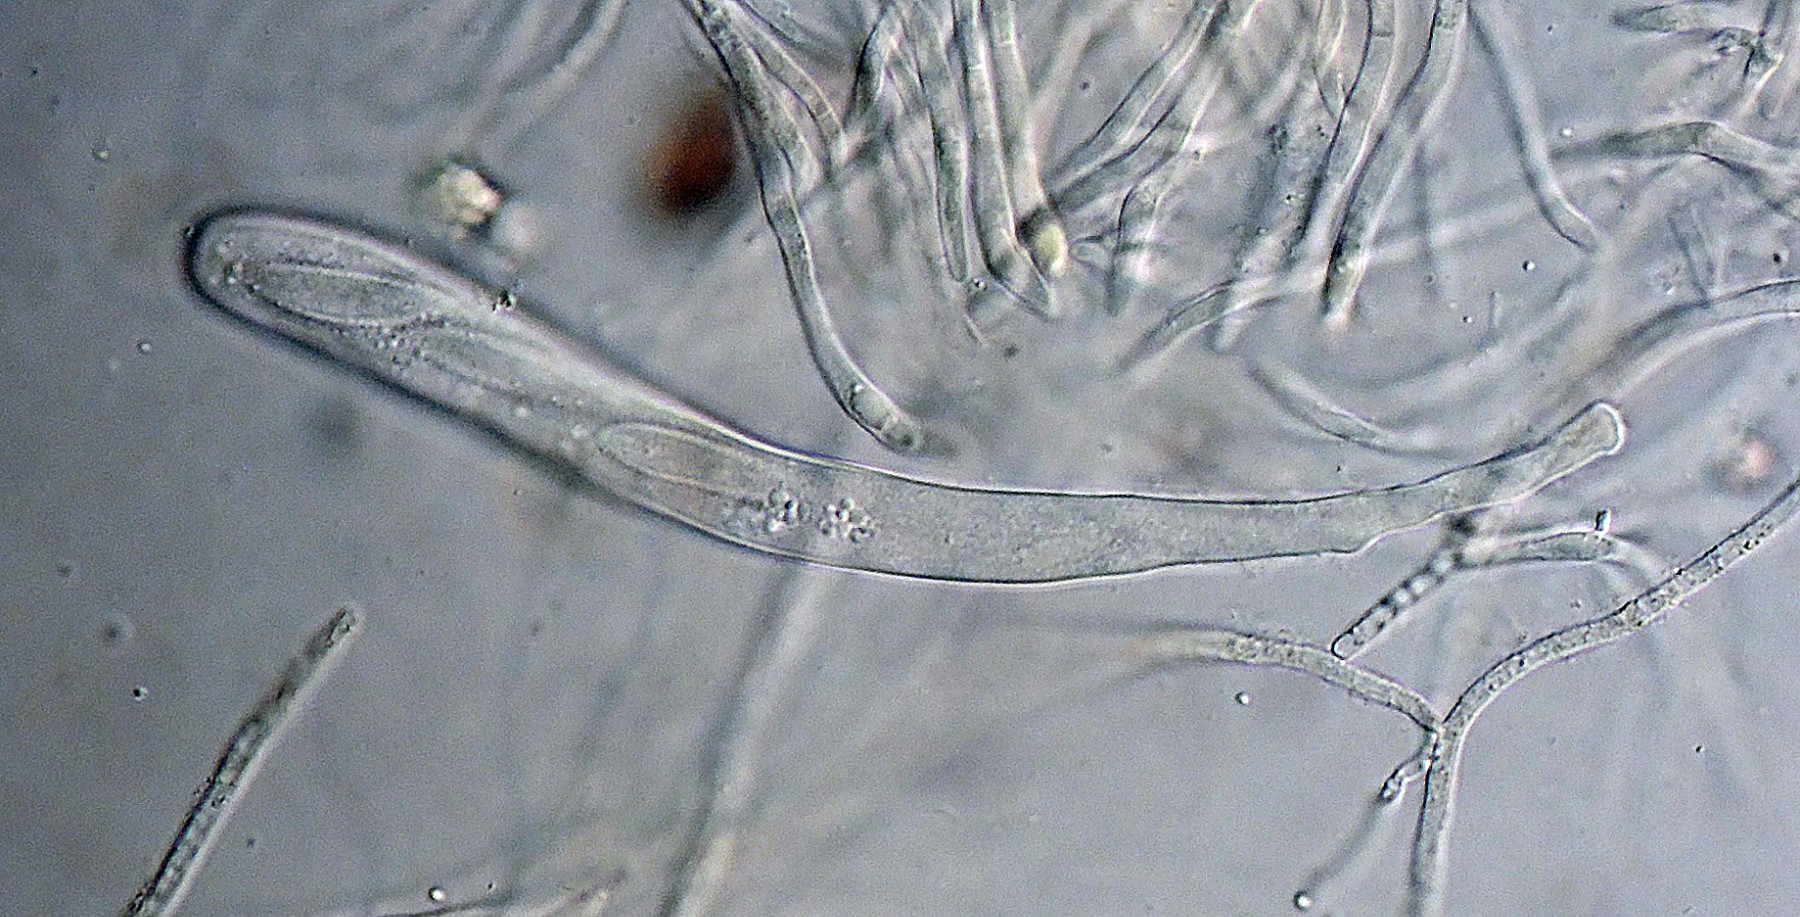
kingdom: Fungi
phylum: Ascomycota
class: Leotiomycetes
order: Helotiales
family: Cenangiaceae
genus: Crumenulopsis
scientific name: Crumenulopsis sororia
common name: sorthåret filtskive
